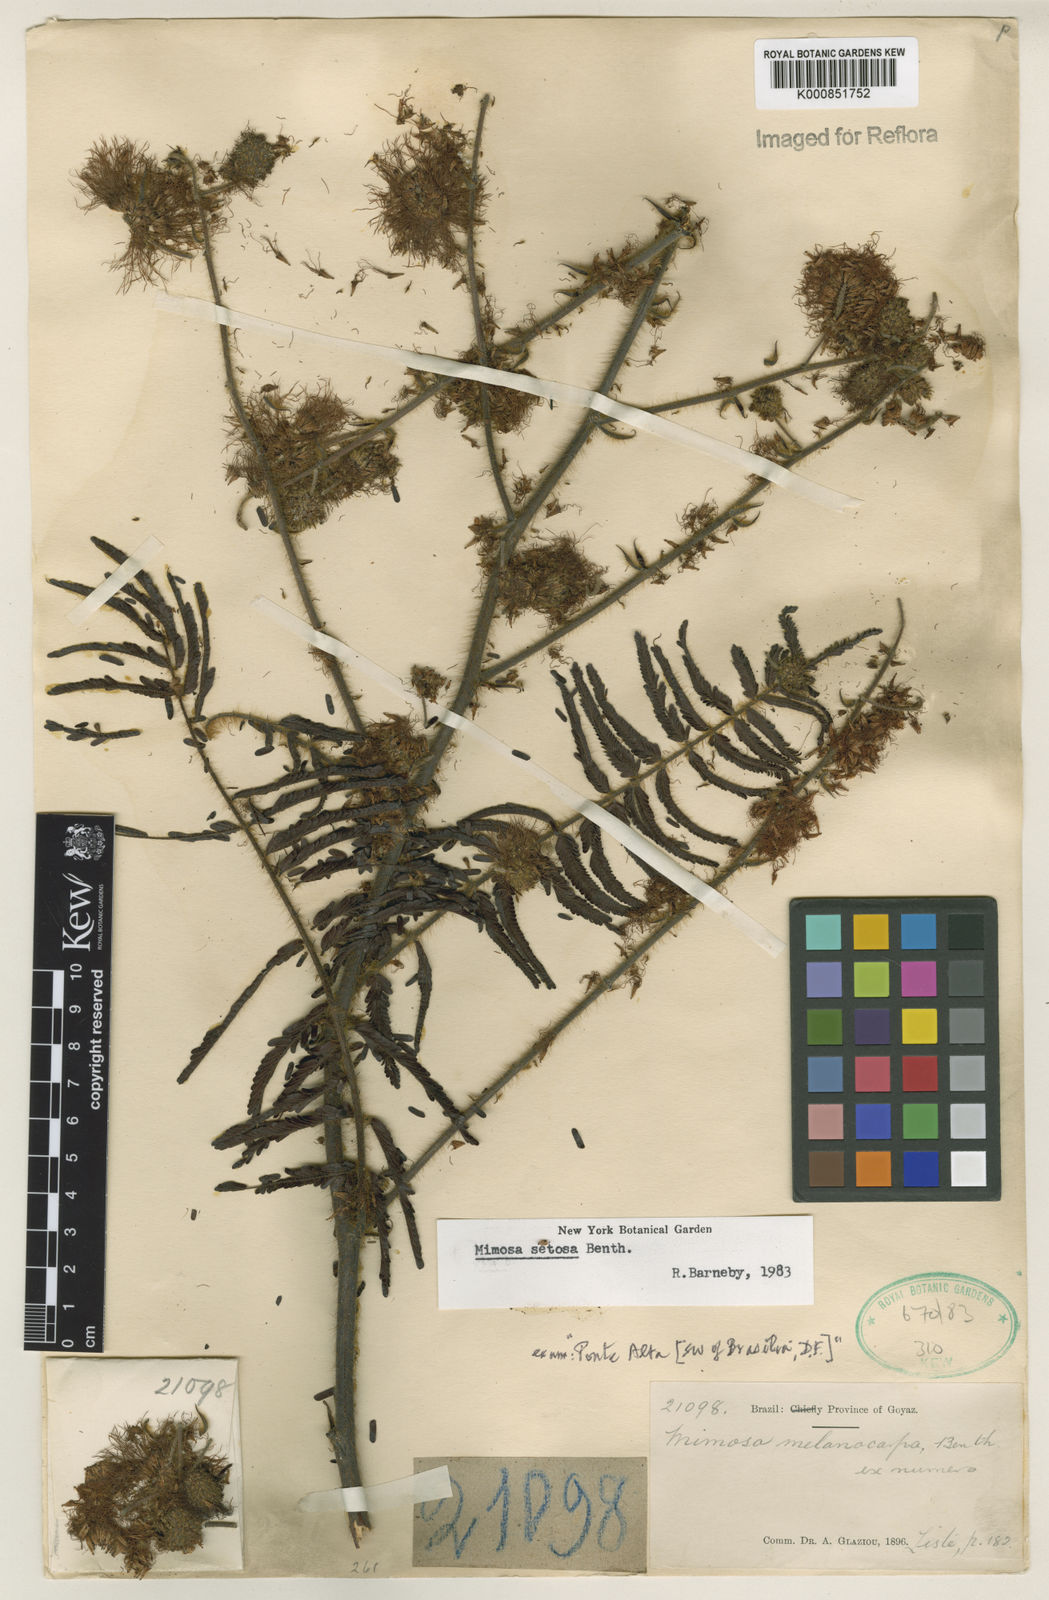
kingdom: Plantae
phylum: Tracheophyta
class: Magnoliopsida
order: Fabales
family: Fabaceae
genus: Mimosa
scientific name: Mimosa setosa
